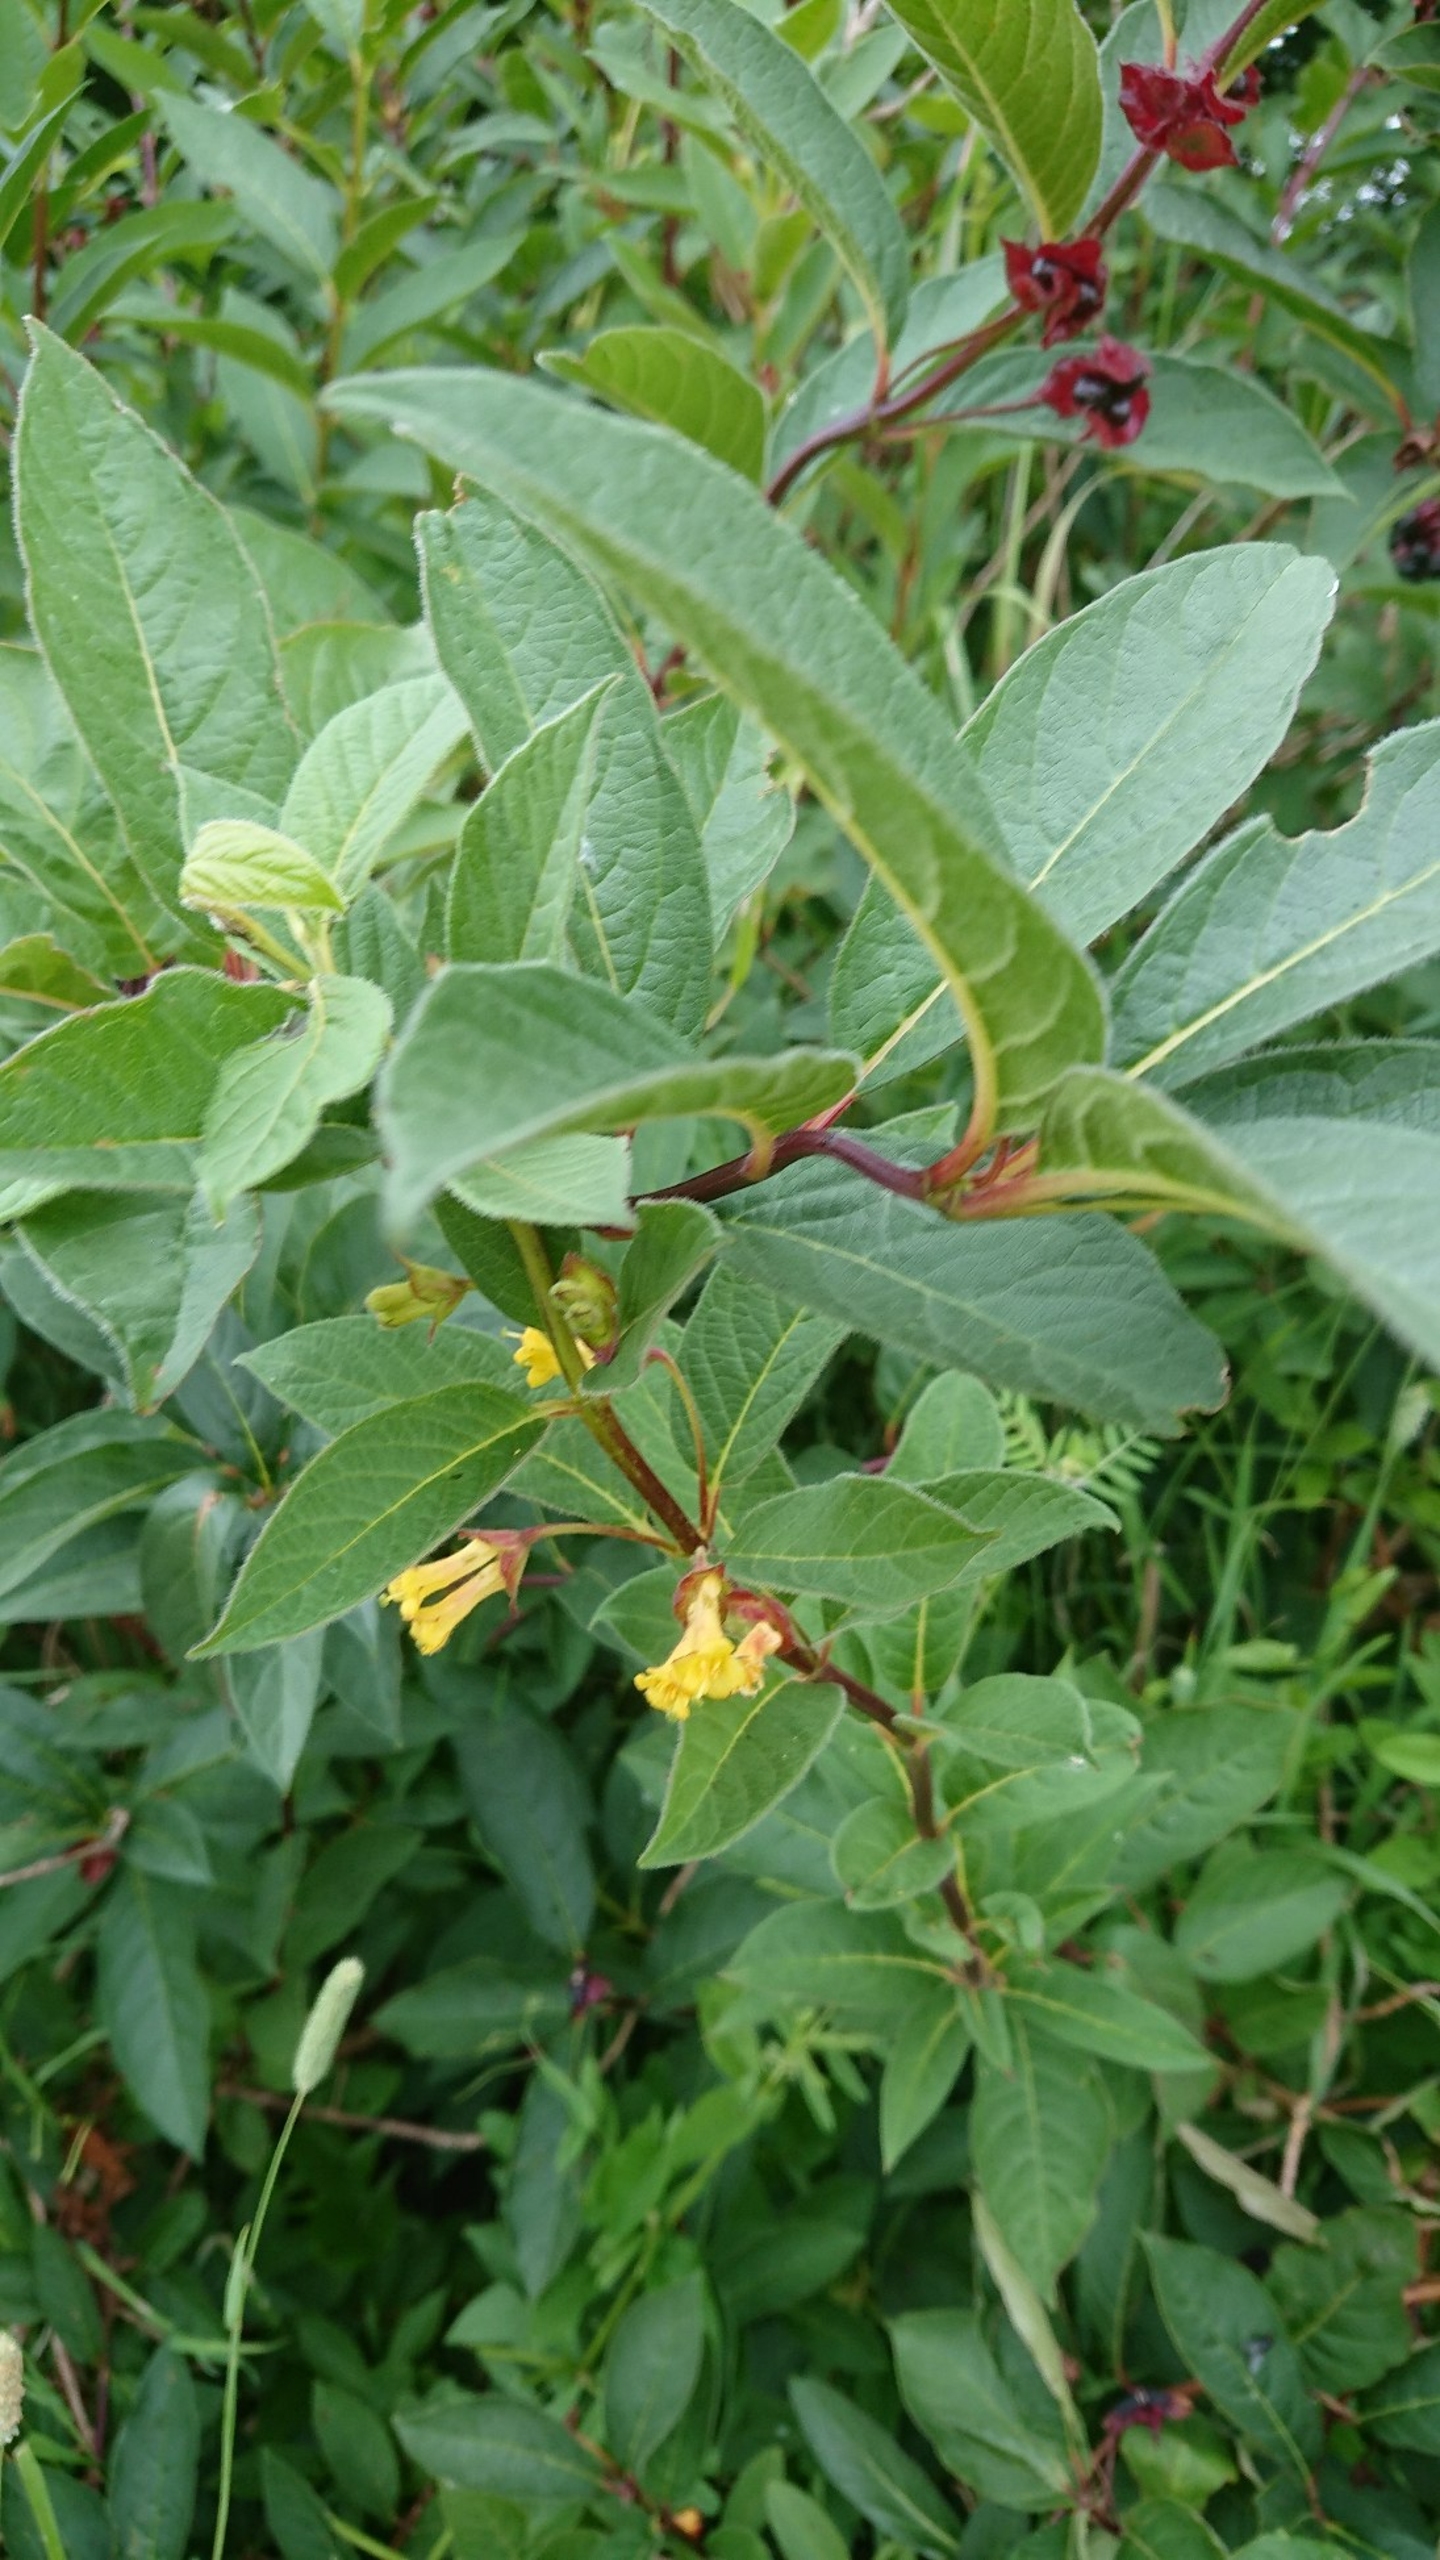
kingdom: Plantae
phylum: Tracheophyta
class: Magnoliopsida
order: Dipsacales
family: Caprifoliaceae
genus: Lonicera
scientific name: Lonicera involucrata
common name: Svøb-gedeblad
